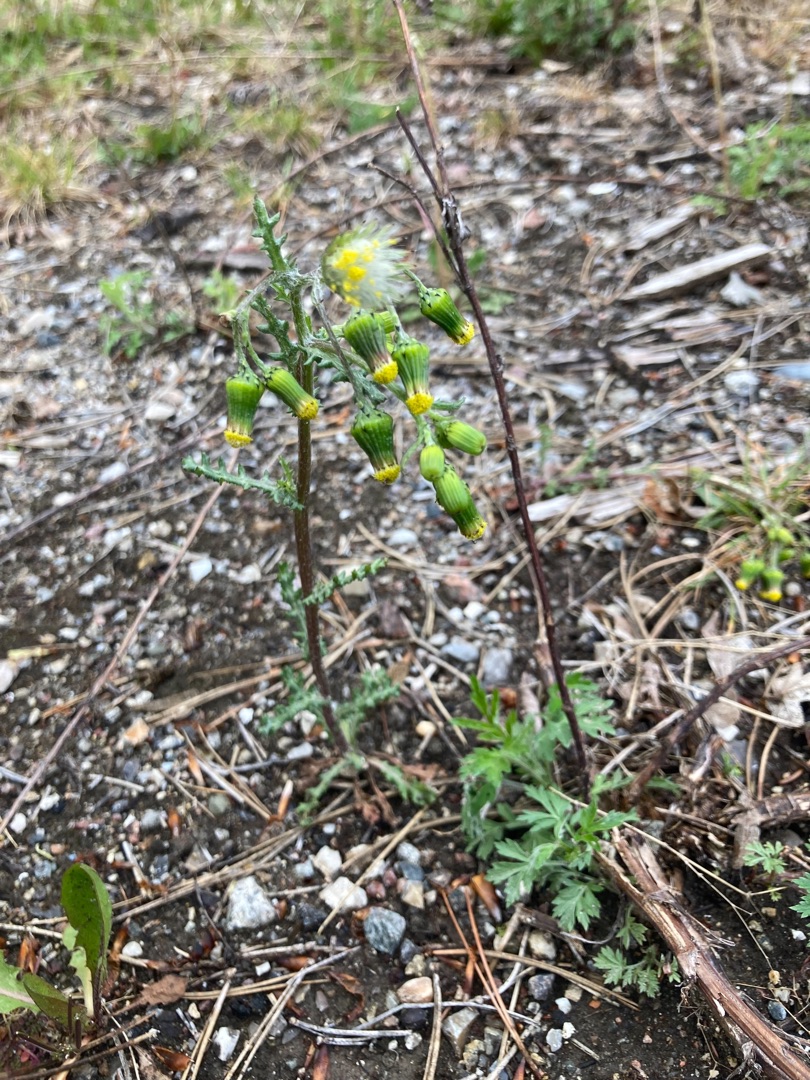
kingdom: Plantae
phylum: Tracheophyta
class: Magnoliopsida
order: Asterales
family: Asteraceae
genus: Senecio
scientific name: Senecio vulgaris
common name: Almindelig brandbæger
